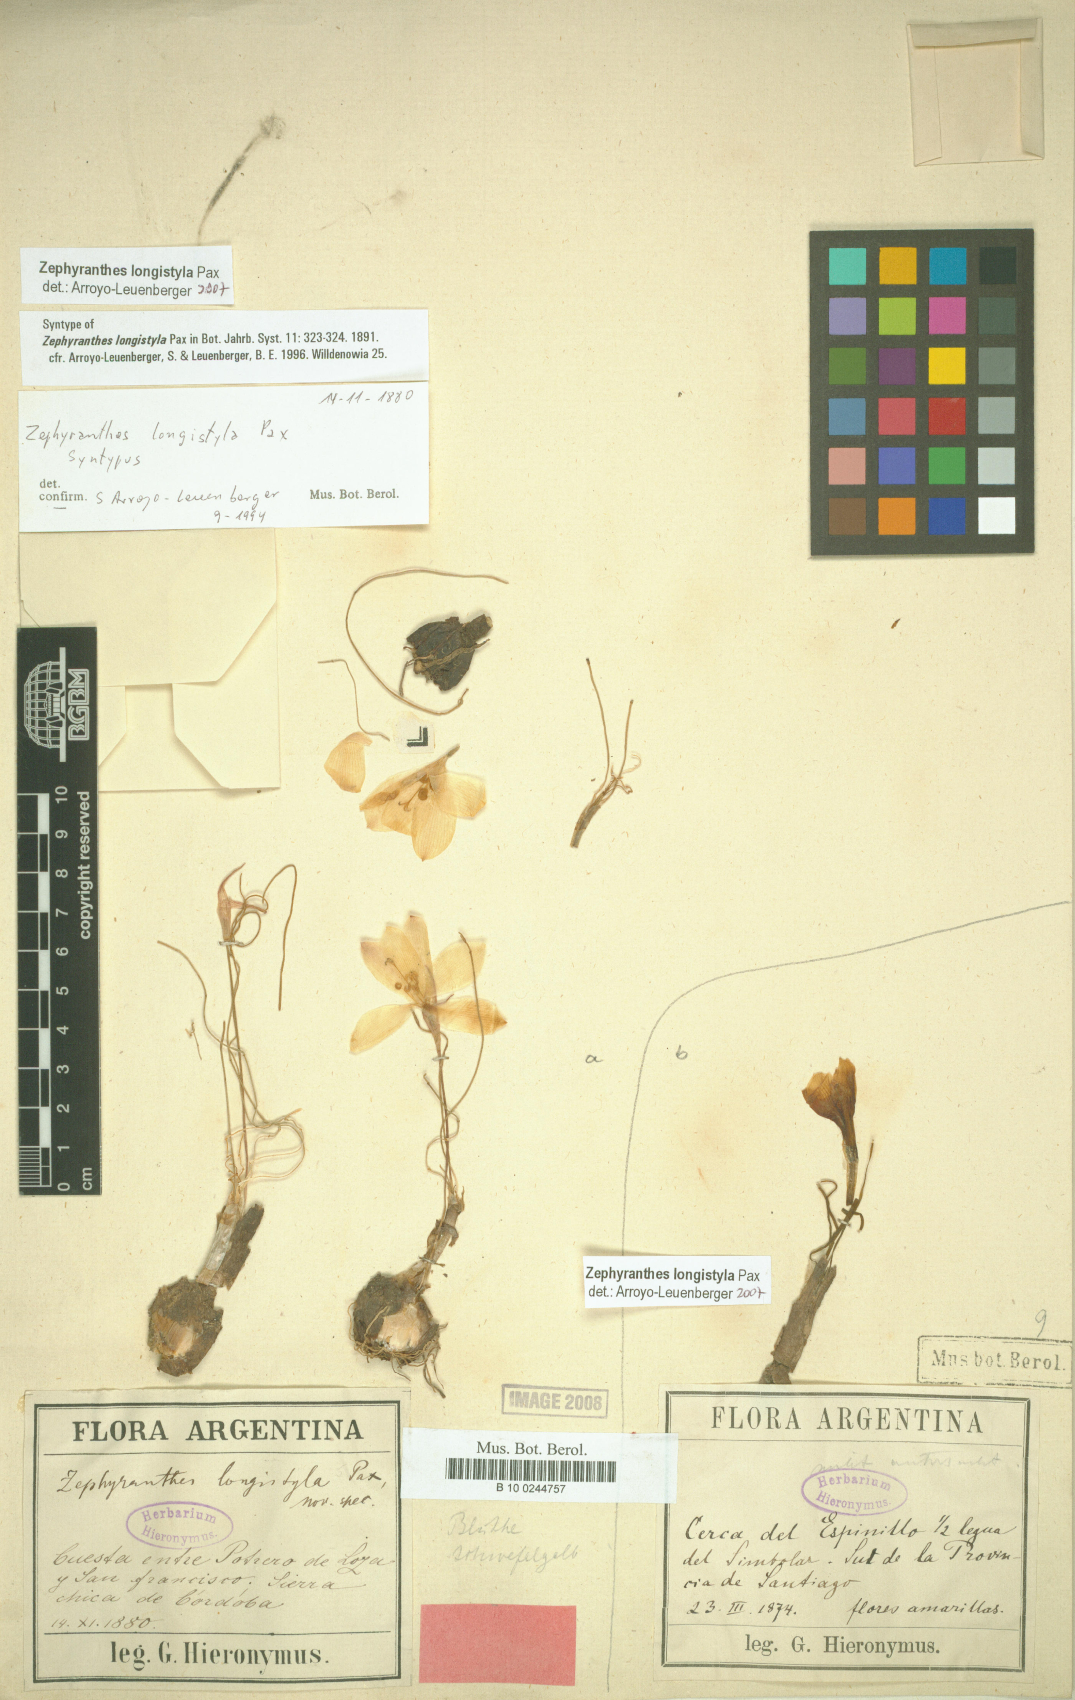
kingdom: Plantae
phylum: Tracheophyta
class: Liliopsida
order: Asparagales
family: Amaryllidaceae
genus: Zephyranthes
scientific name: Zephyranthes longistyla
